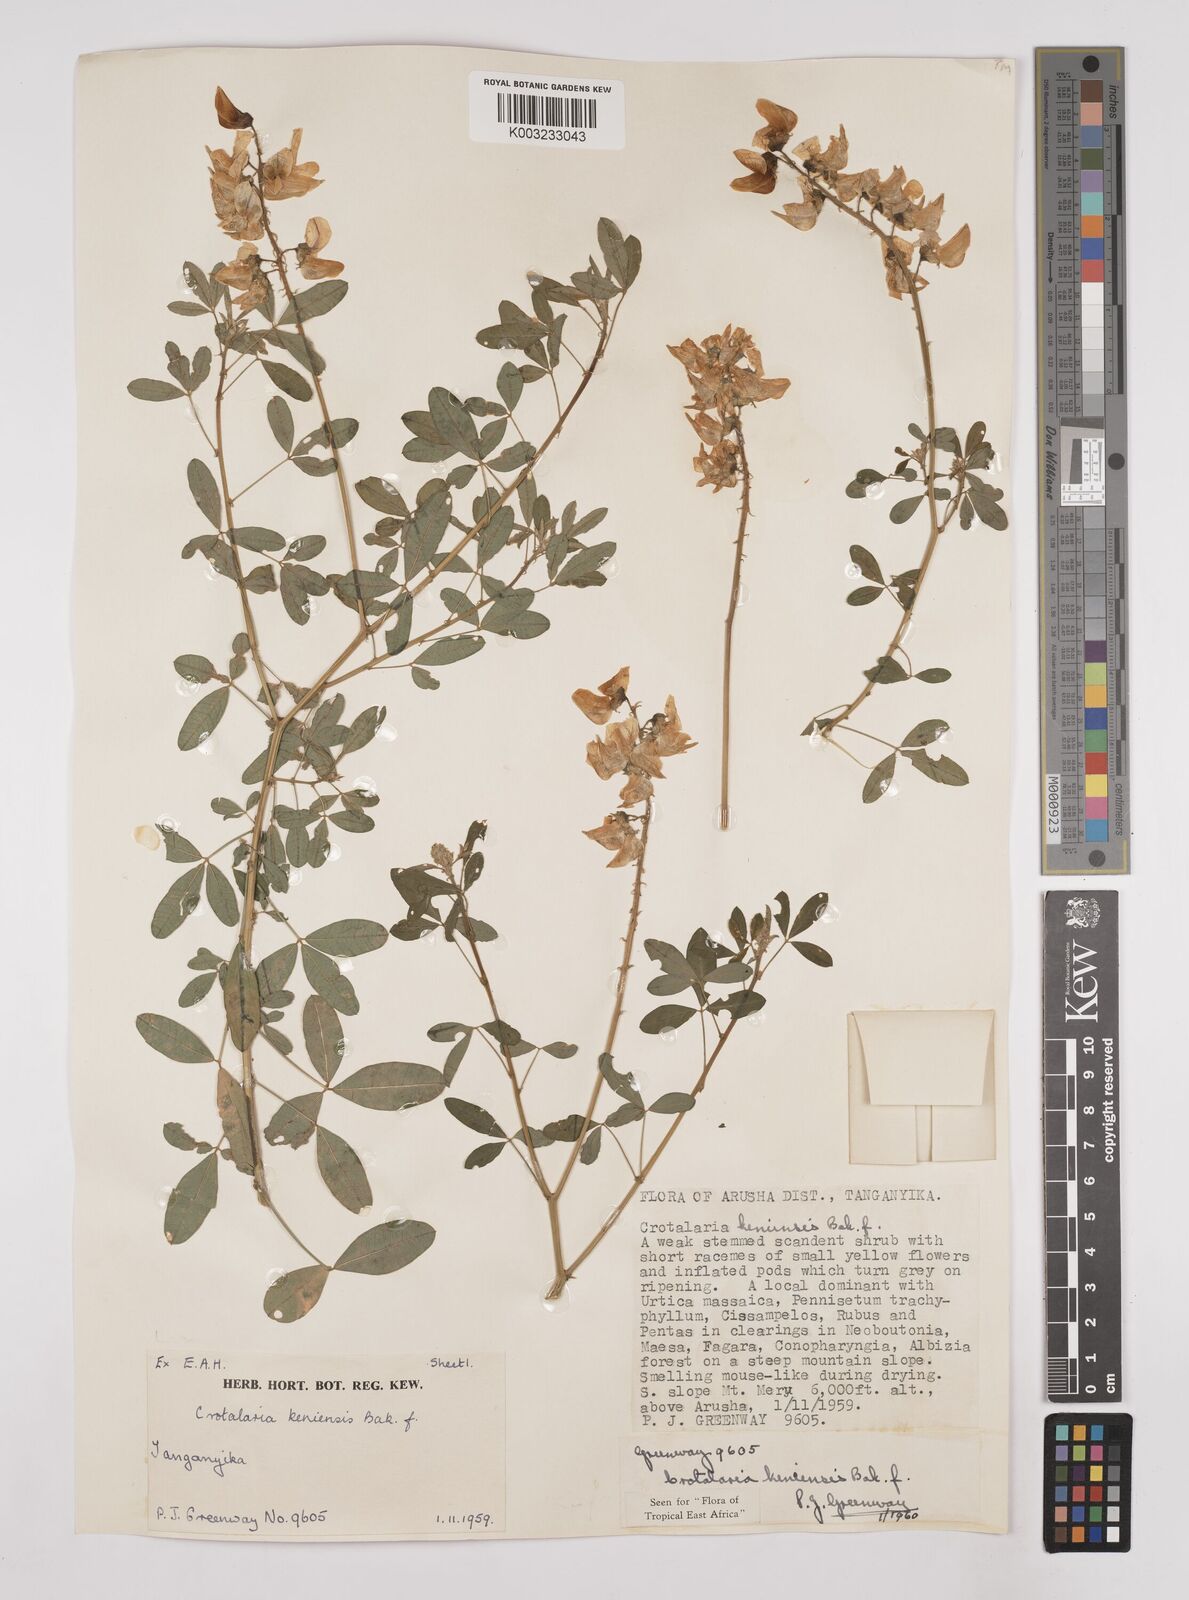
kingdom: Plantae
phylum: Tracheophyta
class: Magnoliopsida
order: Fabales
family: Fabaceae
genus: Crotalaria
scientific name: Crotalaria keniensis
